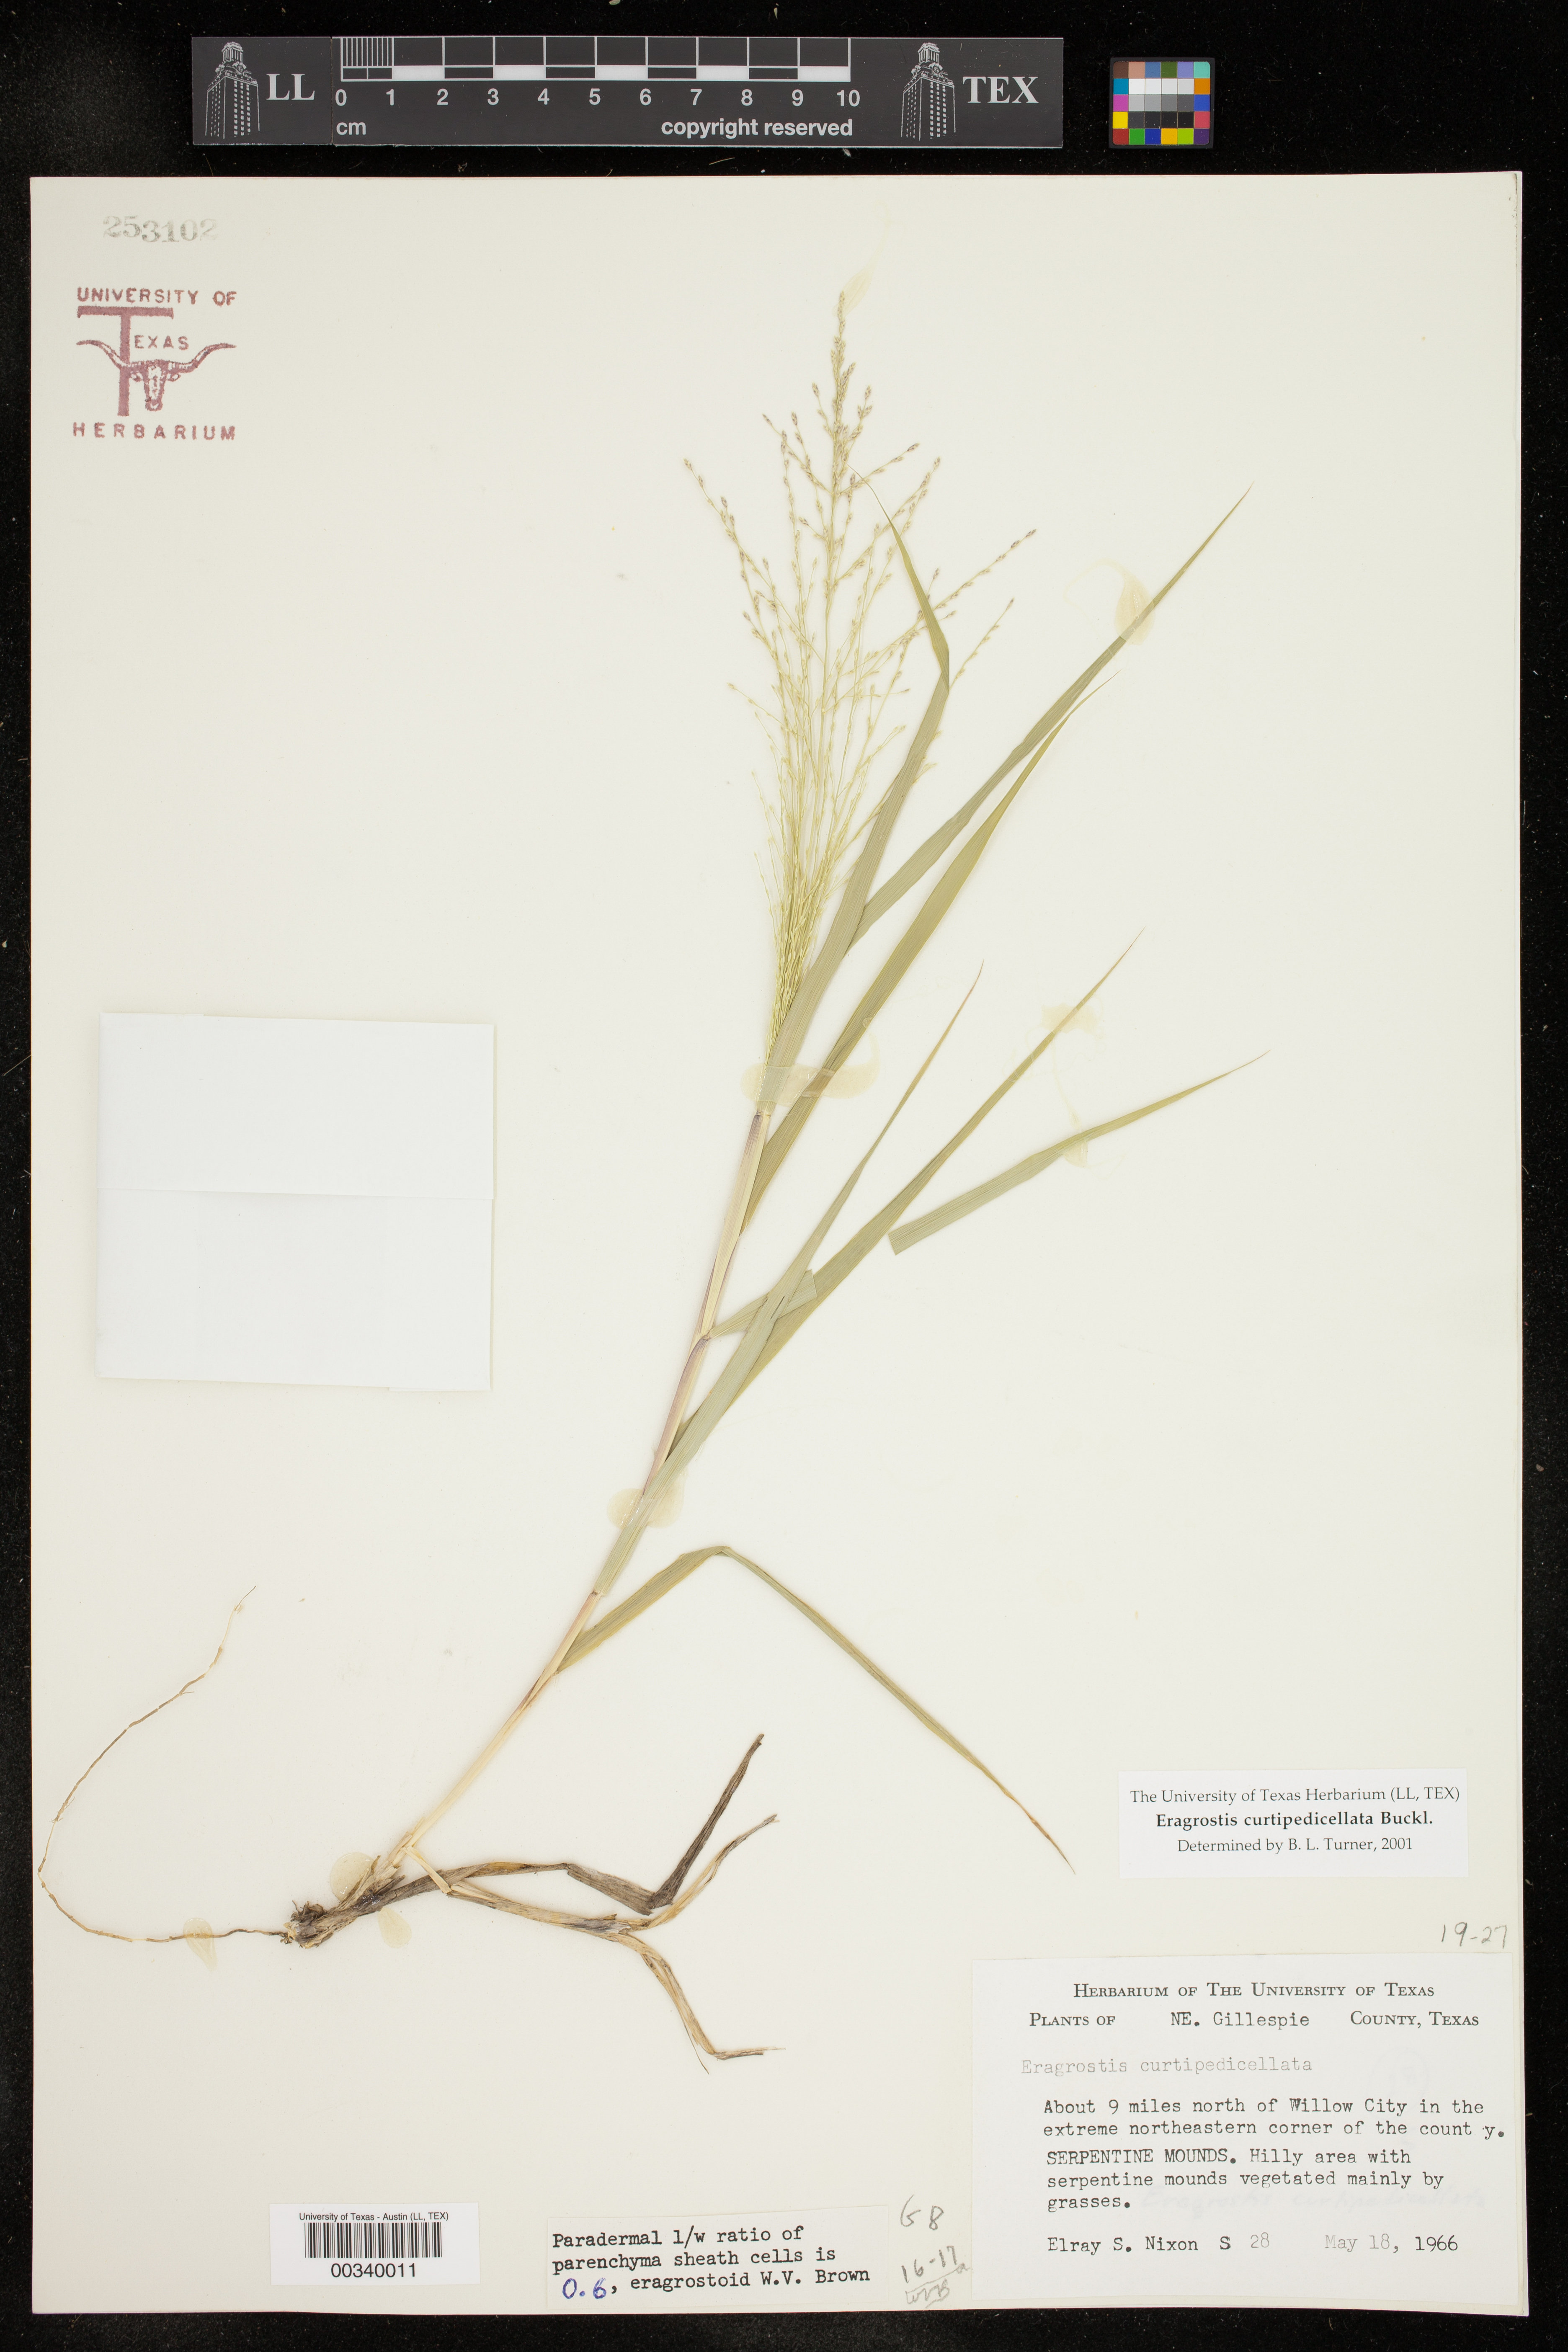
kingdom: Plantae
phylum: Tracheophyta
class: Liliopsida
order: Poales
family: Poaceae
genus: Eragrostis
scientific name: Eragrostis curtipedicellata
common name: Gummy love grass
